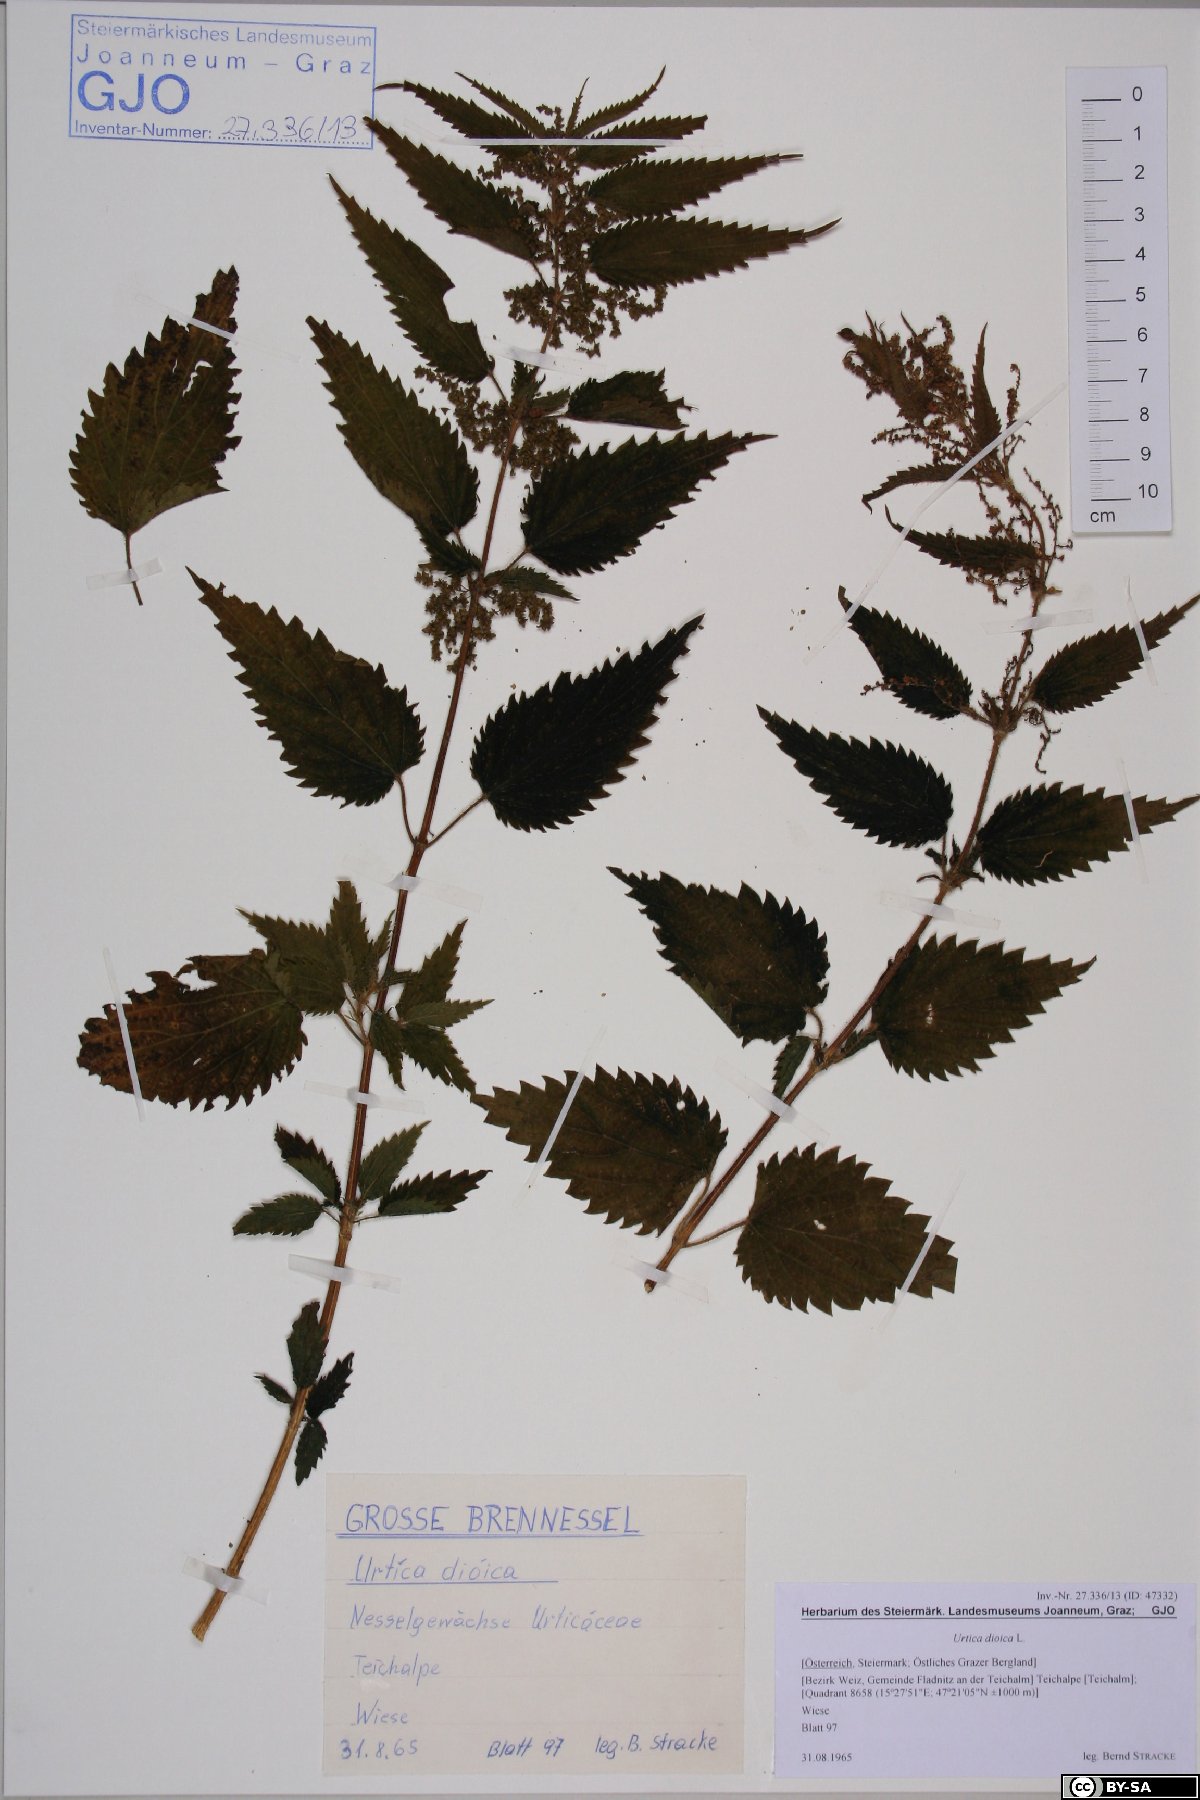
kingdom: Plantae
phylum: Tracheophyta
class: Magnoliopsida
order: Rosales
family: Urticaceae
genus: Urtica
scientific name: Urtica dioica
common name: Common nettle
